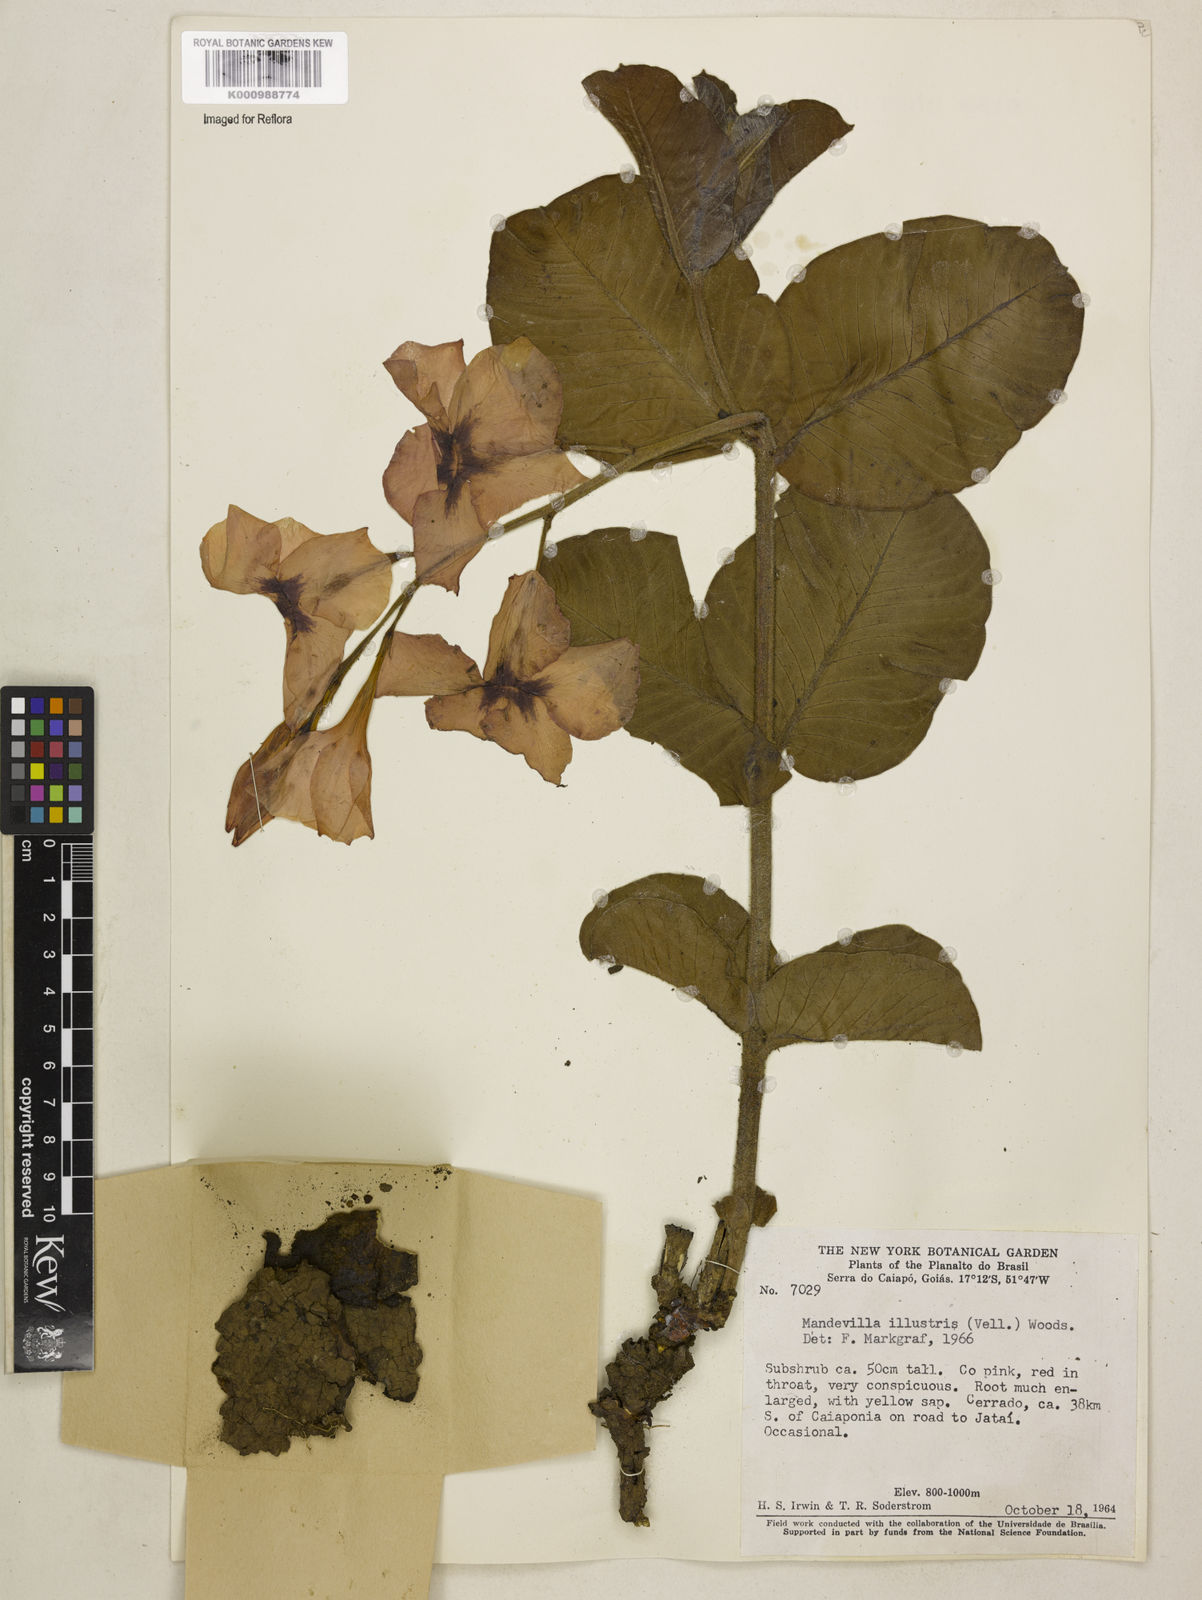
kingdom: Plantae
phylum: Tracheophyta
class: Magnoliopsida
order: Gentianales
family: Apocynaceae
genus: Mandevilla
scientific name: Mandevilla illustris
